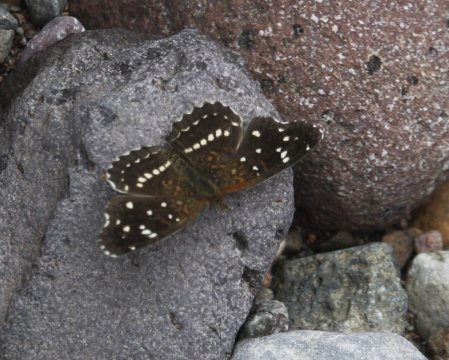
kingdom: Animalia
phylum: Arthropoda
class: Insecta
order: Lepidoptera
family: Nymphalidae
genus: Anthanassa
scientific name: Anthanassa texana
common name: Texan Crescent
